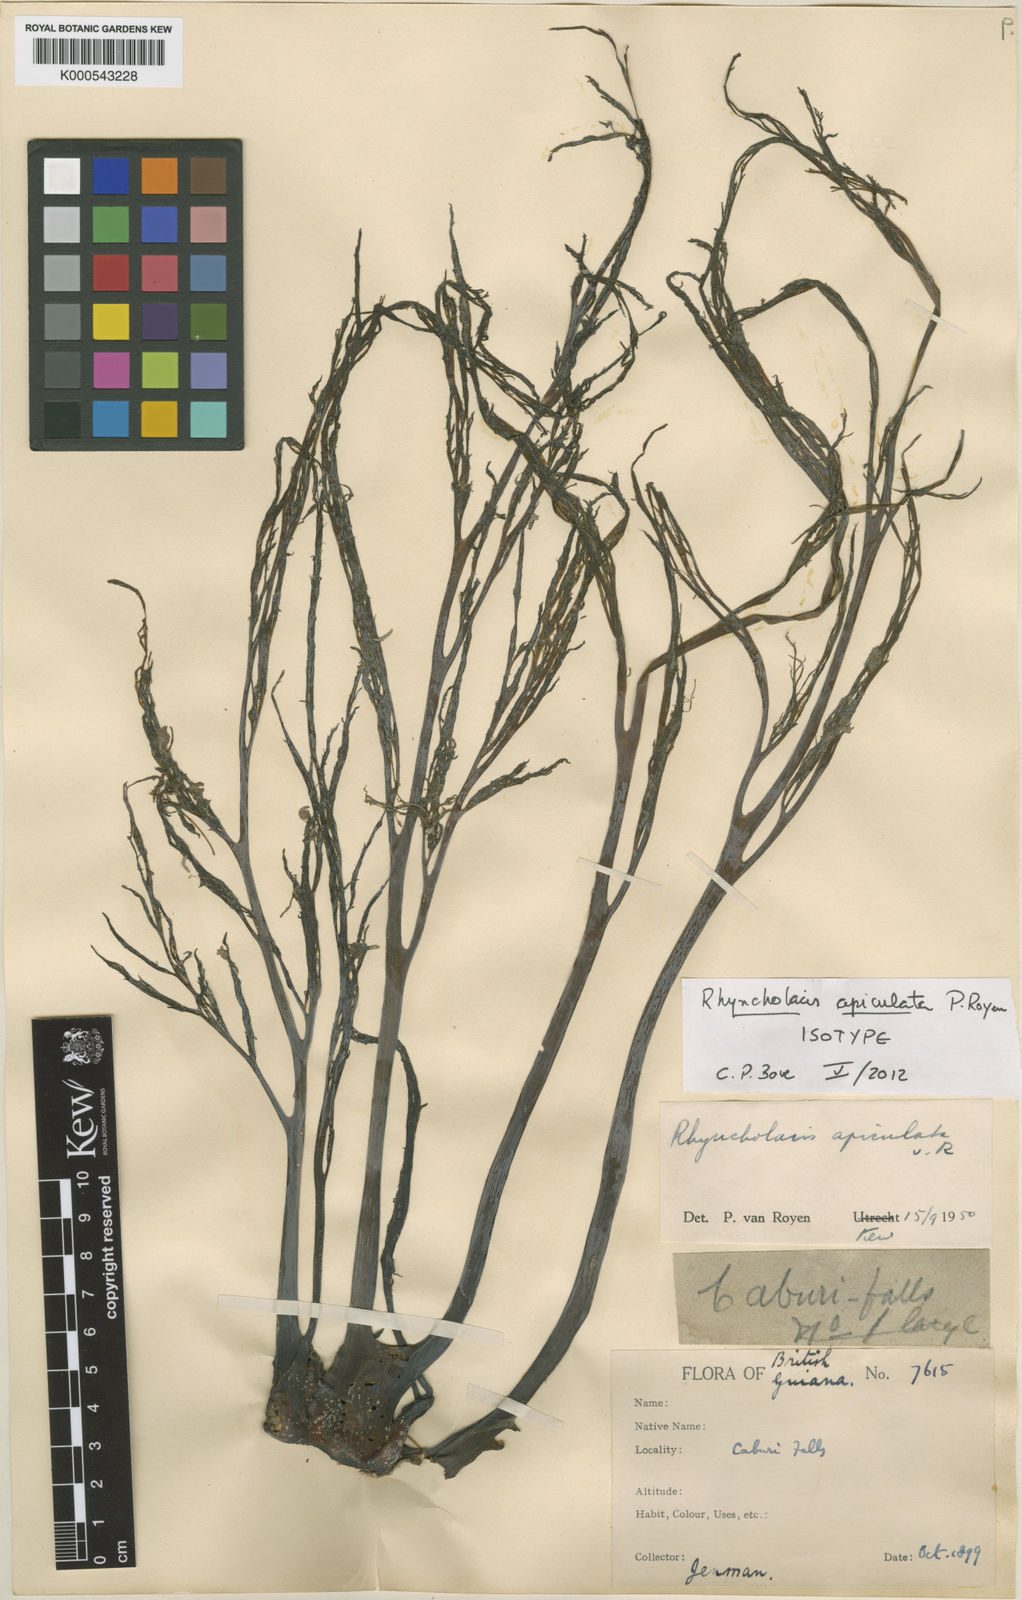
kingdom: Plantae
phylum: Tracheophyta
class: Magnoliopsida
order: Malpighiales
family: Podostemaceae
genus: Rhyncholacis
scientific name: Rhyncholacis apiculata
